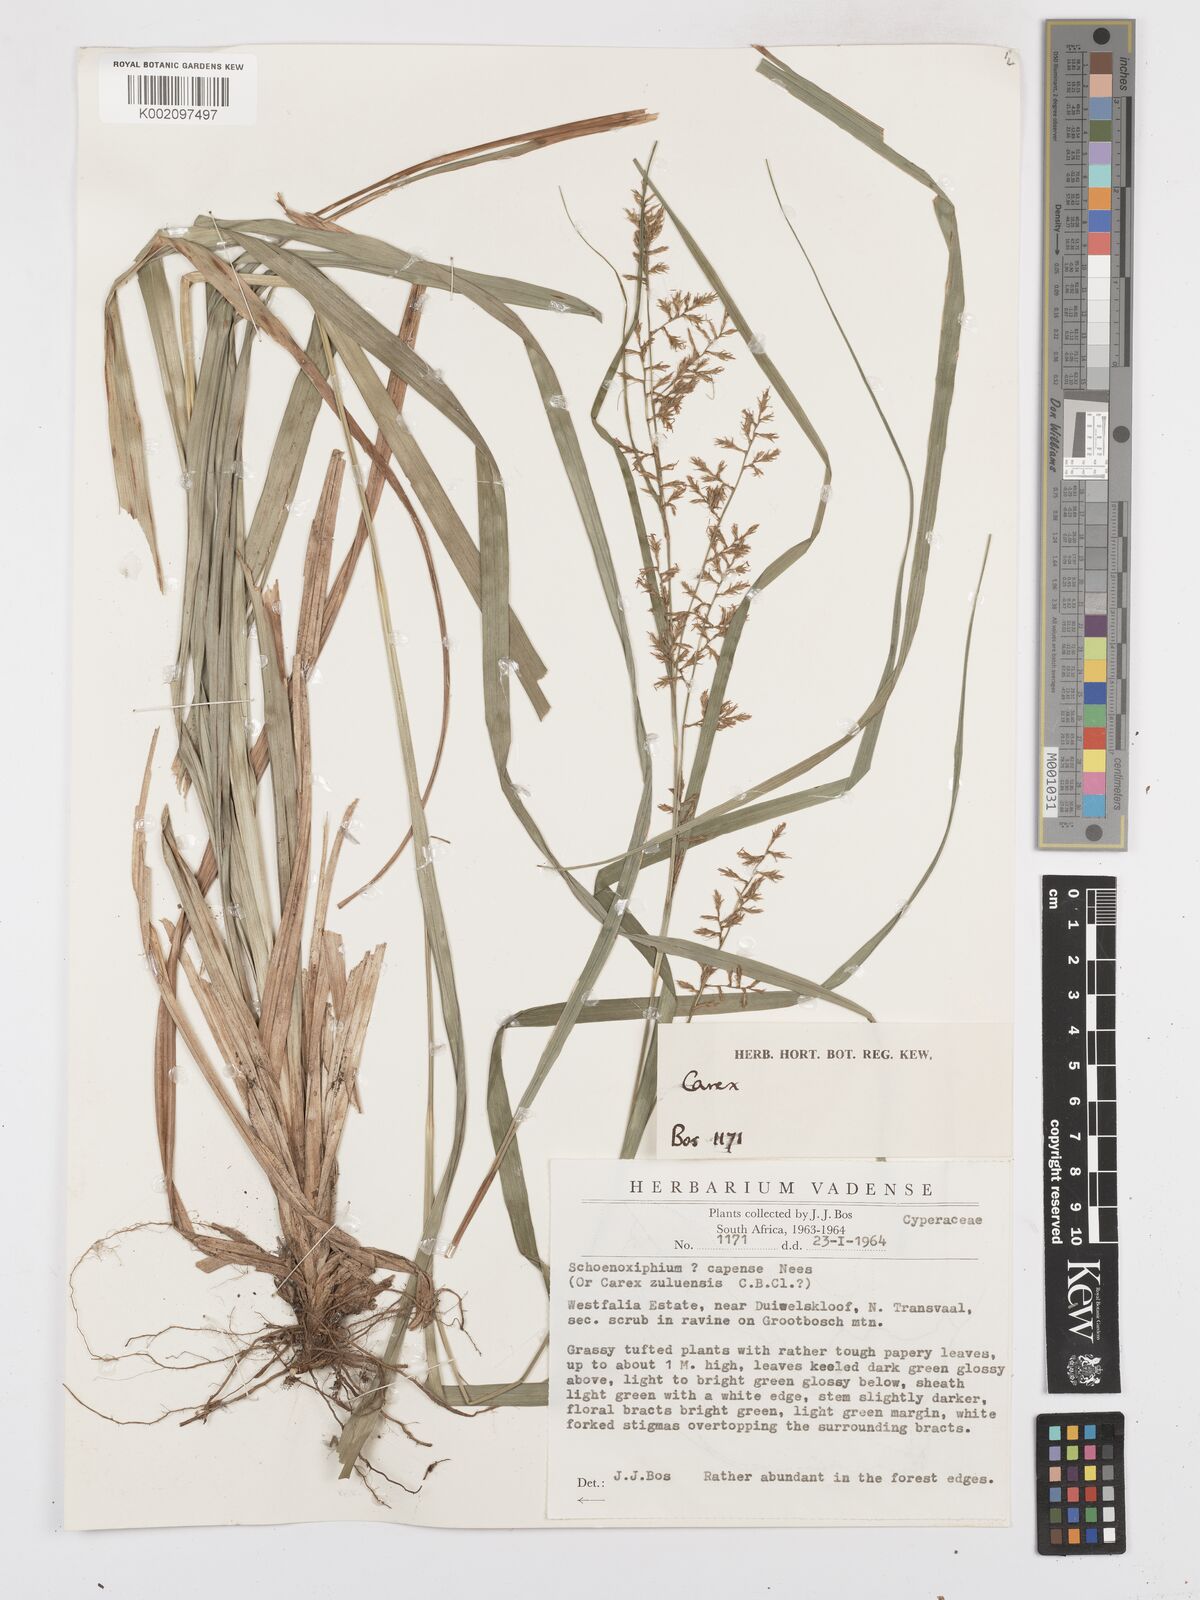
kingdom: Plantae
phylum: Tracheophyta
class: Liliopsida
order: Poales
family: Cyperaceae
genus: Carex
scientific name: Carex spicatopaniculata
